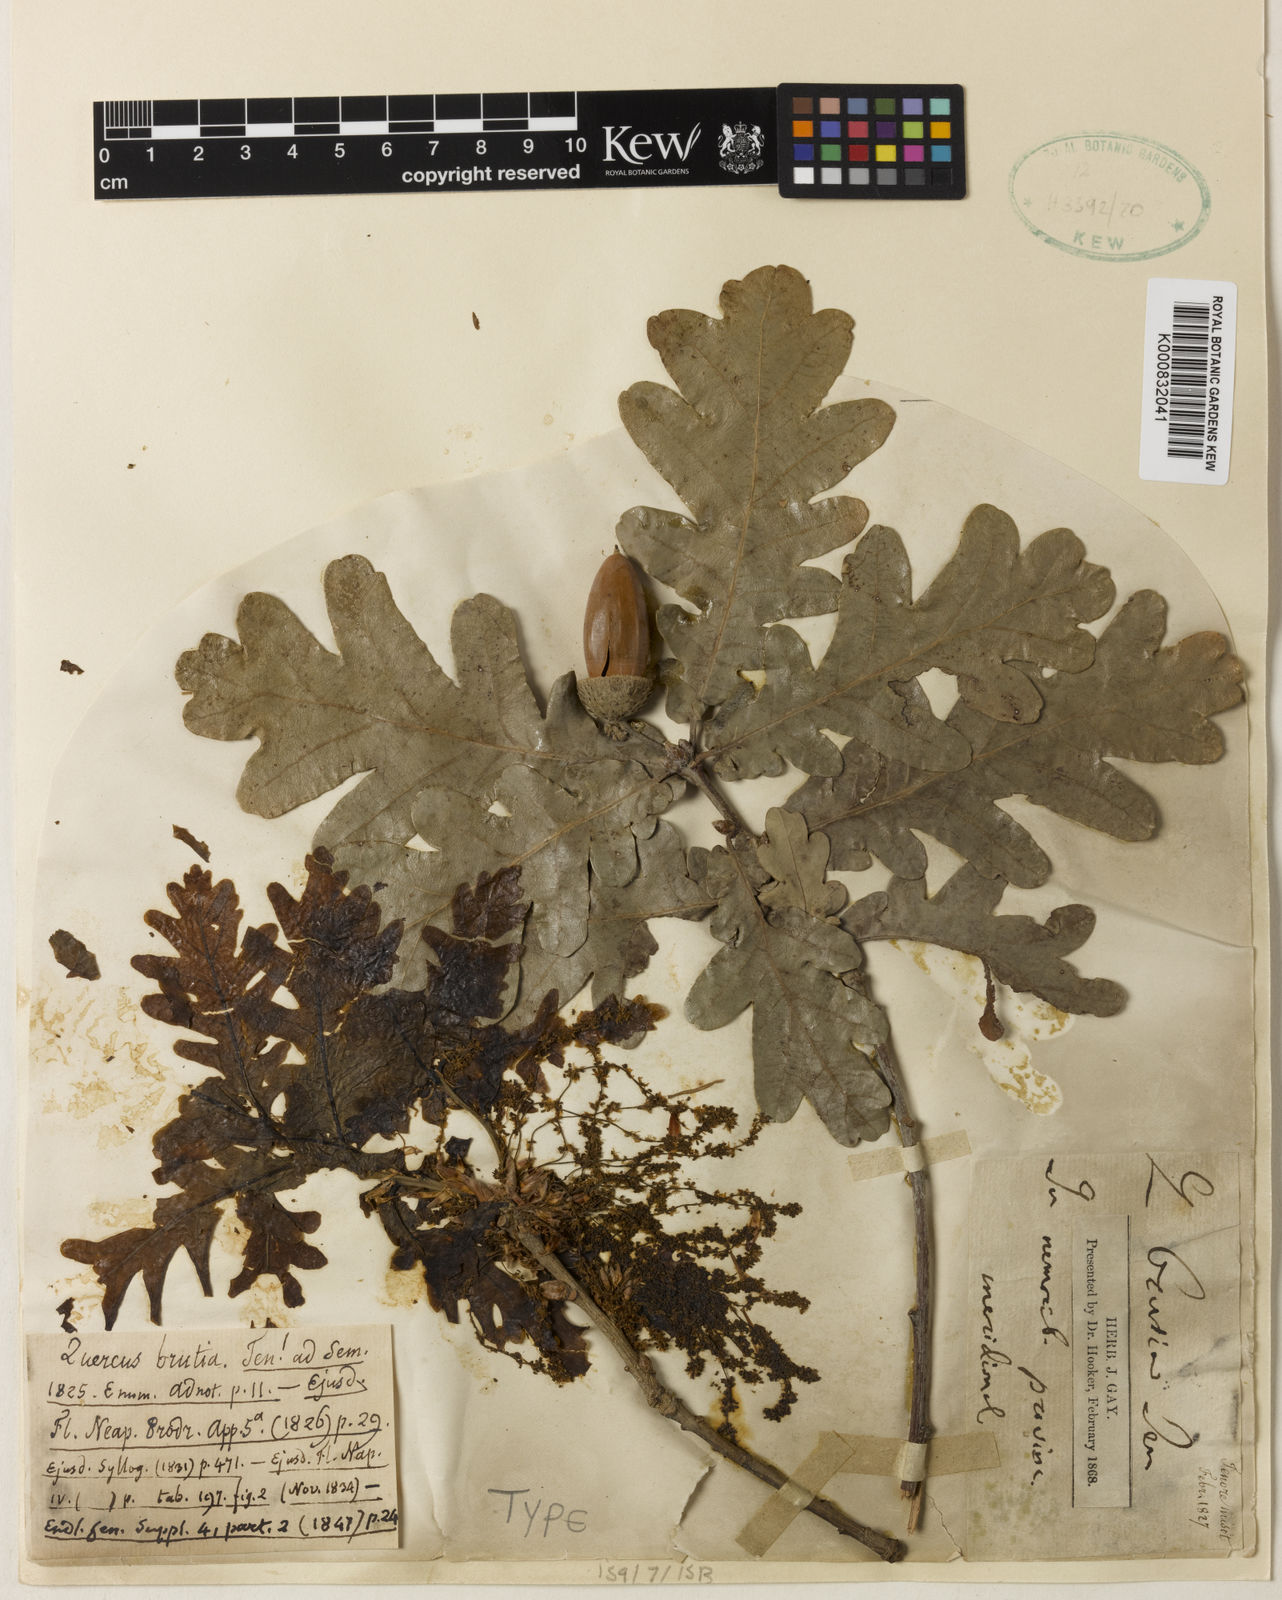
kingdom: Plantae
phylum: Tracheophyta
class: Magnoliopsida
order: Fagales
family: Fagaceae
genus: Quercus
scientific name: Quercus robur
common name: Pedunculate oak
